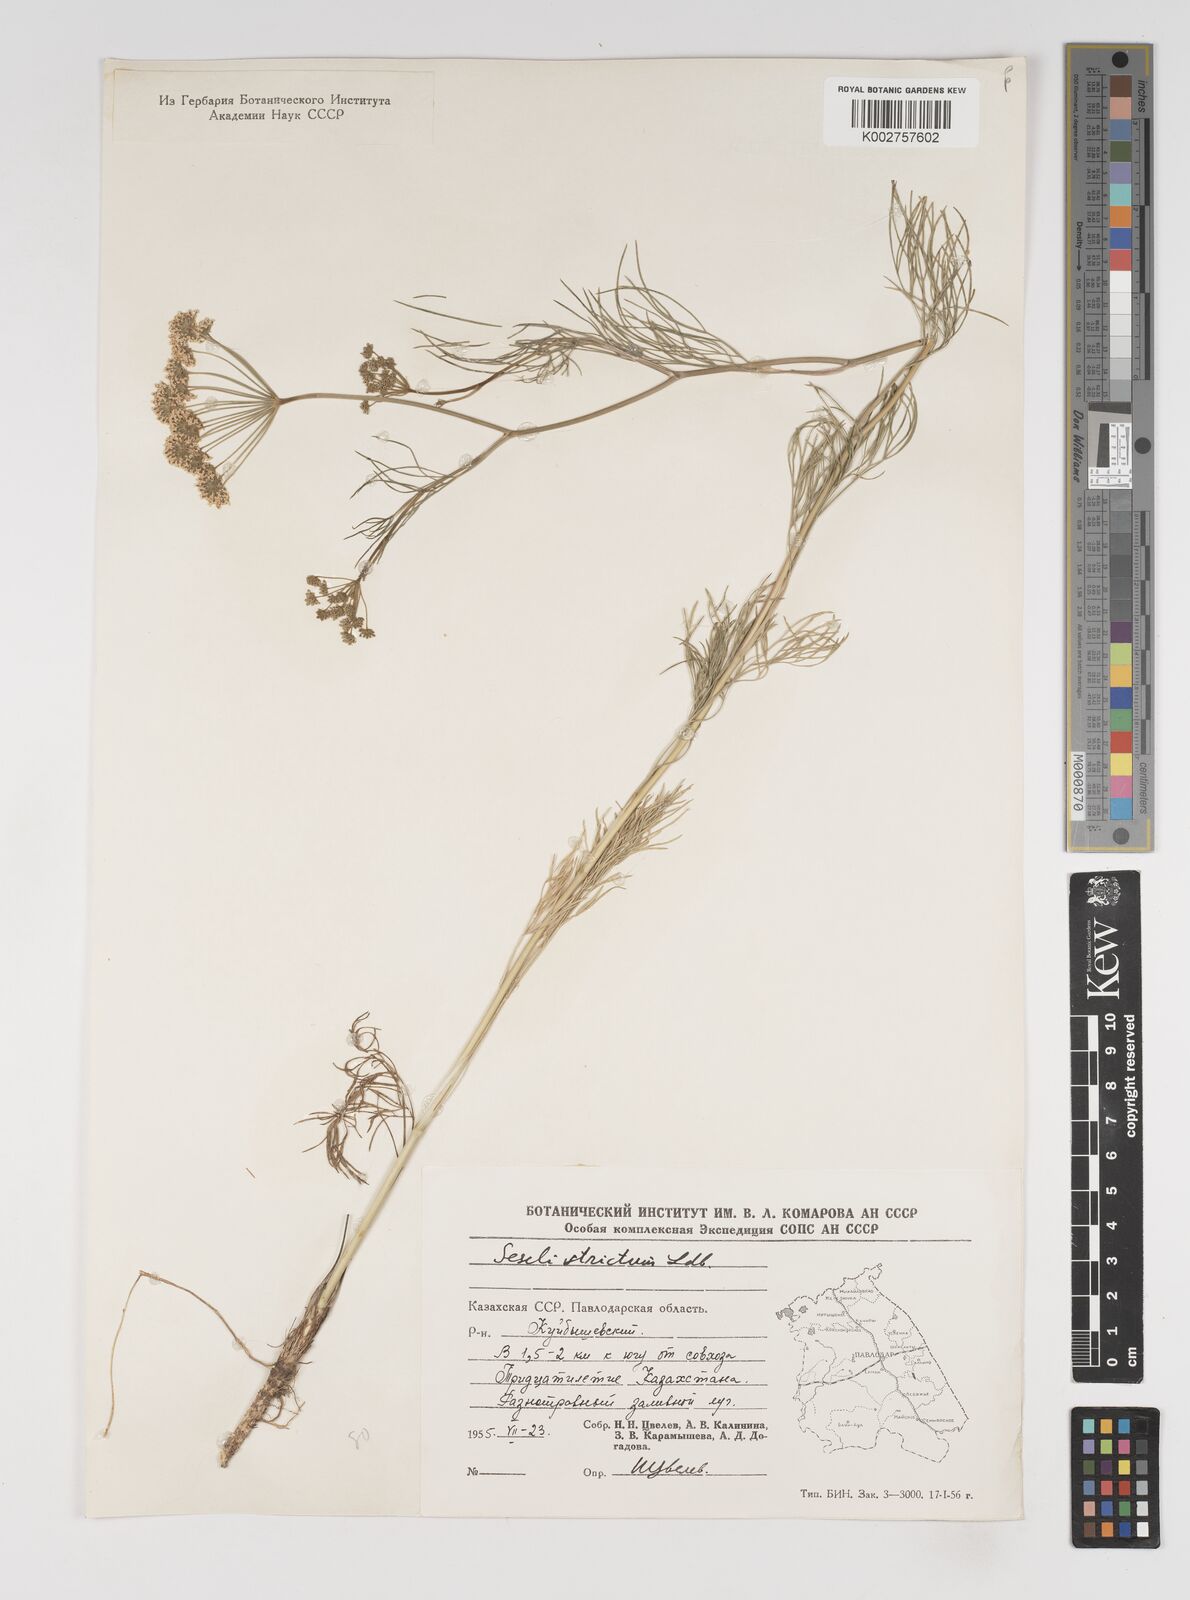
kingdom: Plantae
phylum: Tracheophyta
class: Magnoliopsida
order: Apiales
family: Apiaceae
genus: Seseli
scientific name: Seseli strictum
